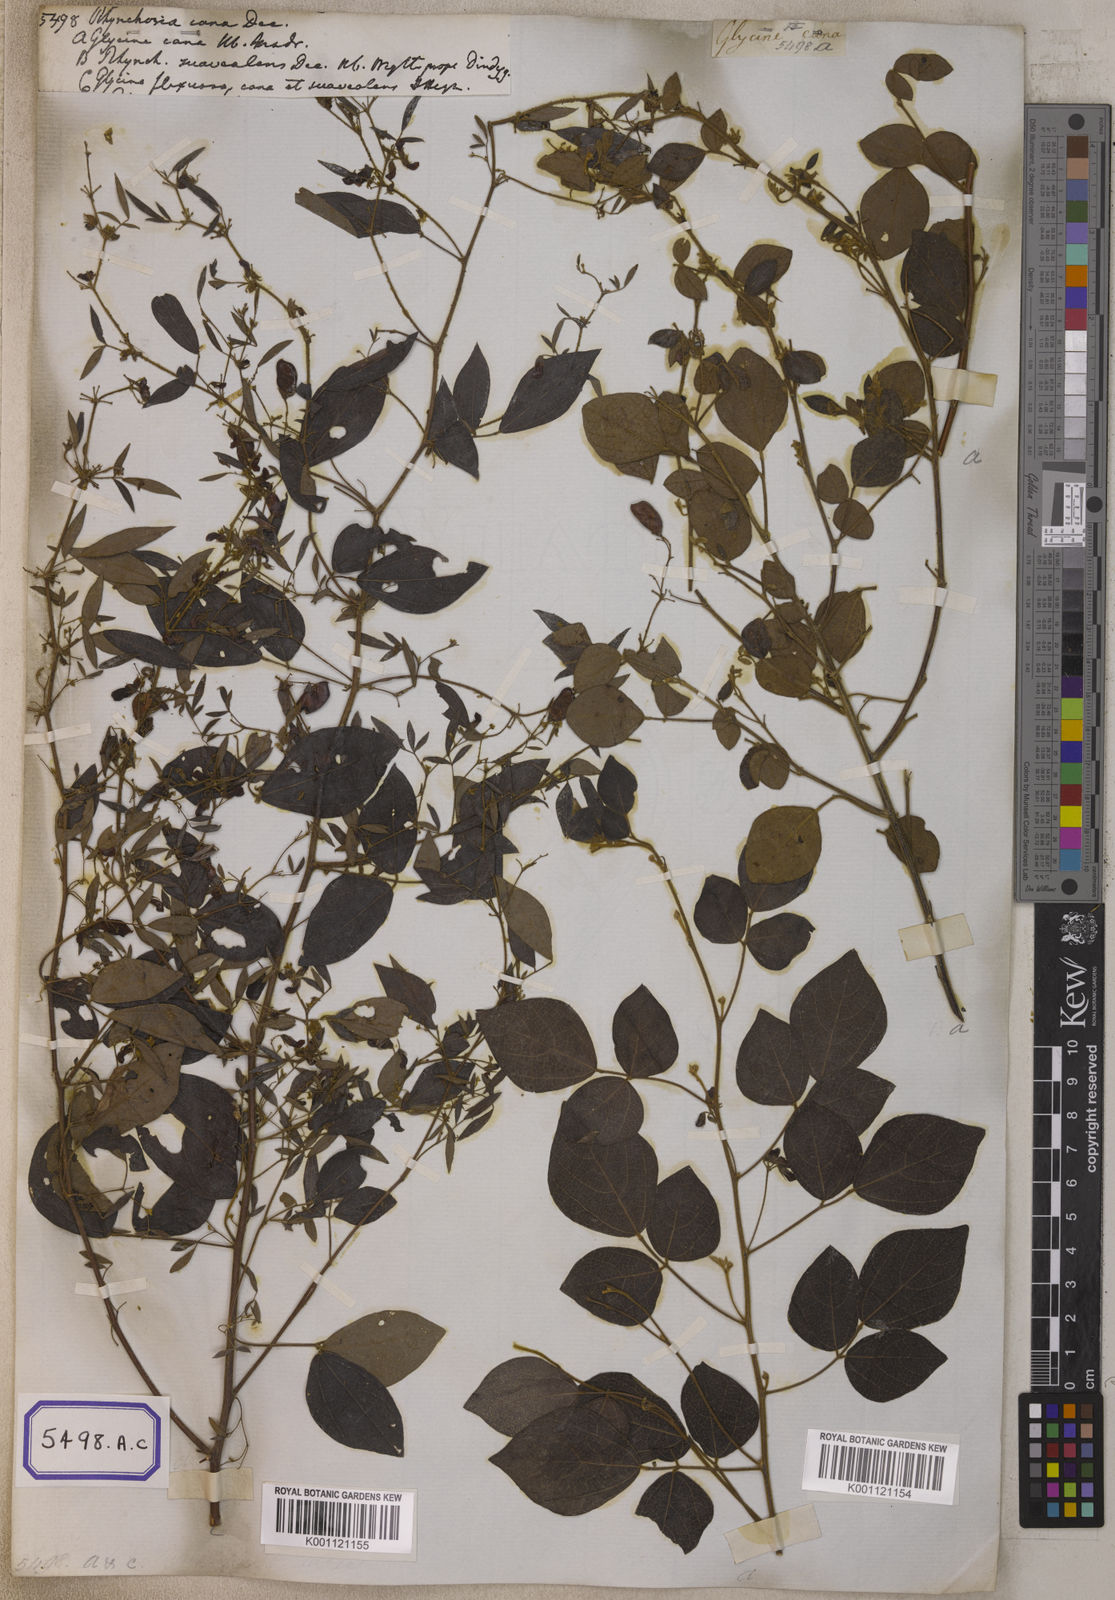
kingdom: Plantae
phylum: Tracheophyta
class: Magnoliopsida
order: Fabales
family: Fabaceae
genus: Rhynchosia
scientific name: Rhynchosia cana
